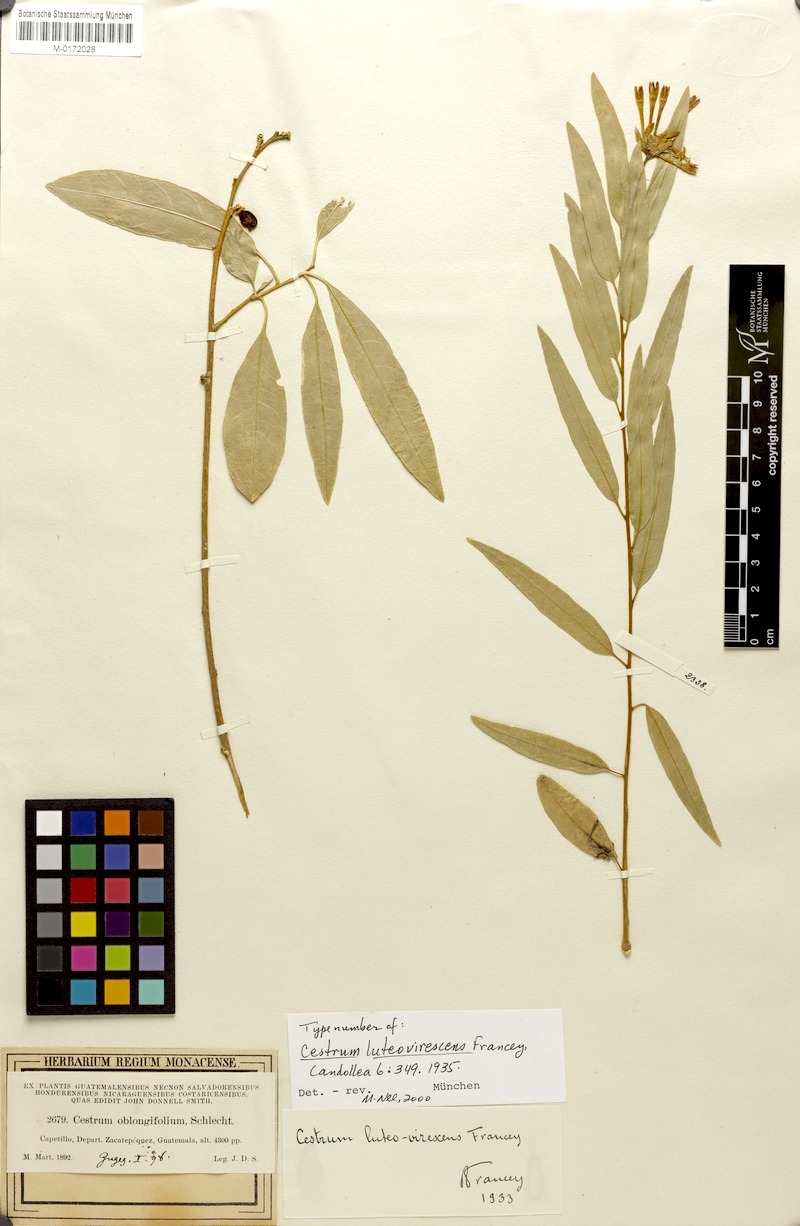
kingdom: Plantae
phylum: Tracheophyta
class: Magnoliopsida
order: Solanales
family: Solanaceae
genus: Cestrum
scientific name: Cestrum luteovirescens
